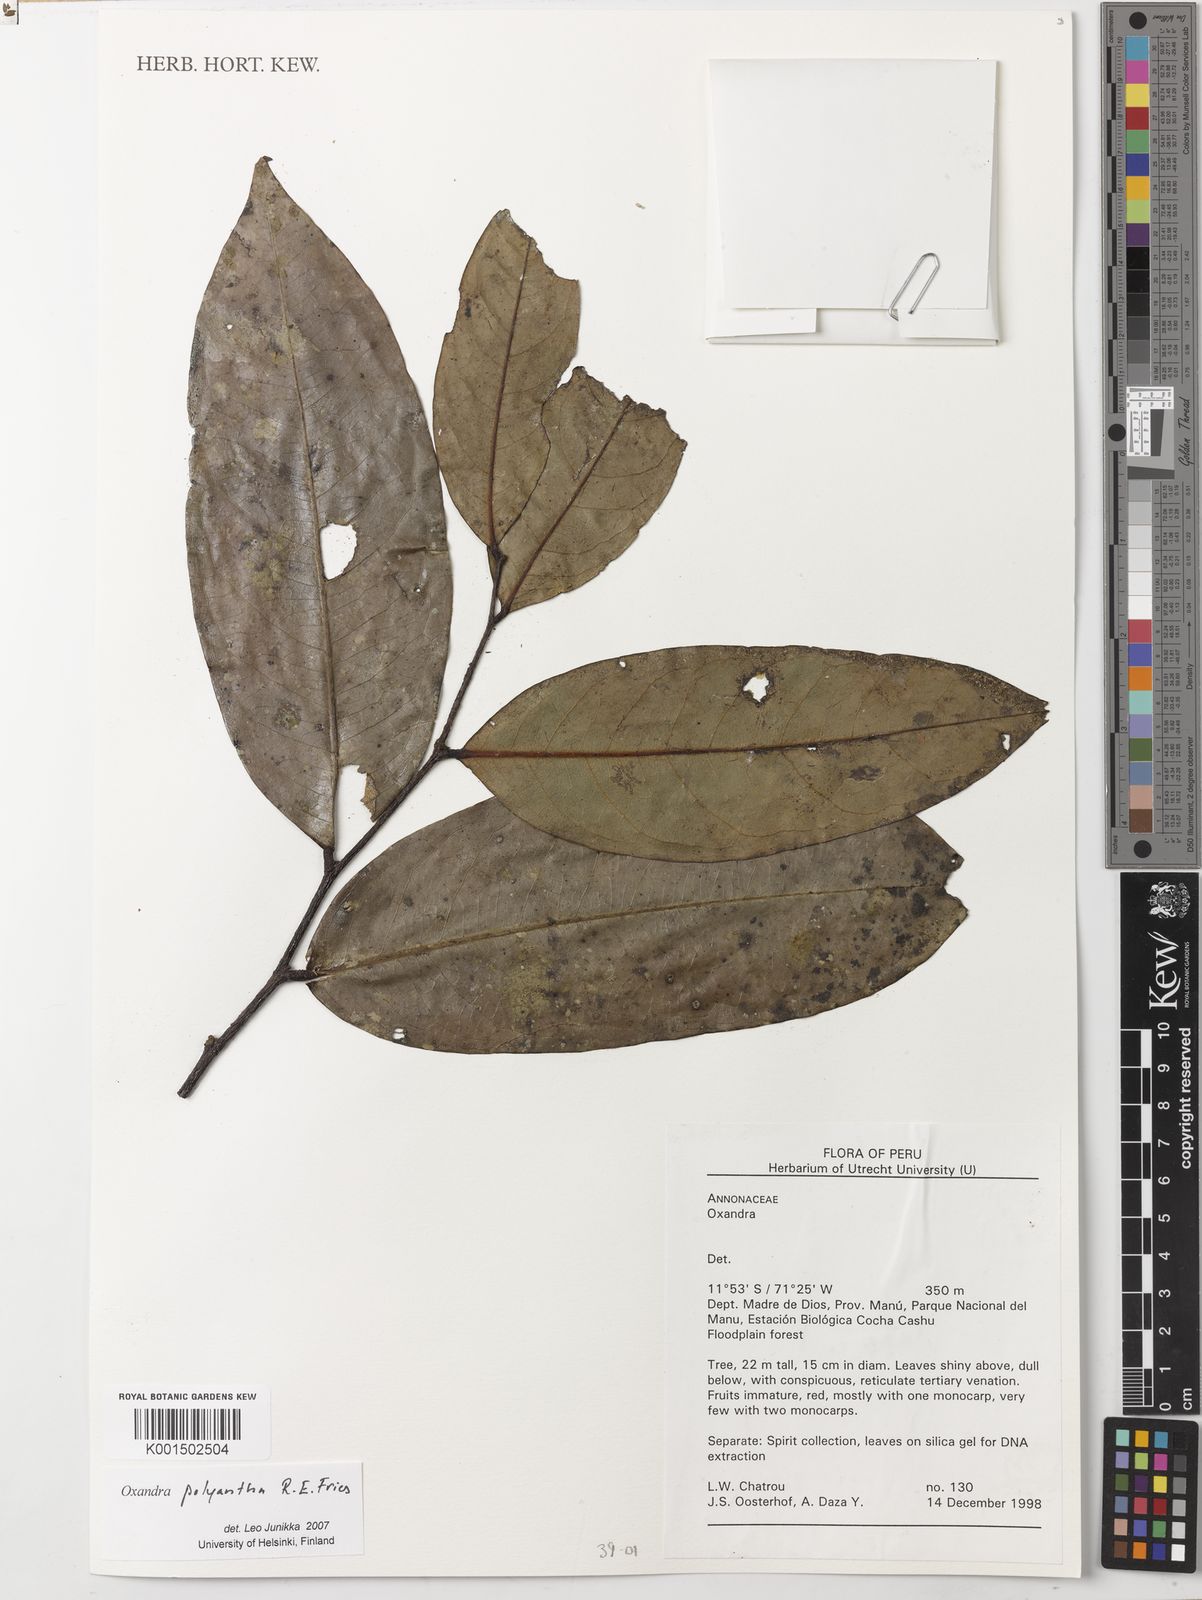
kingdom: Plantae
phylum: Tracheophyta
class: Magnoliopsida
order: Magnoliales
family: Annonaceae
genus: Oxandra
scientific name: Oxandra polyantha
